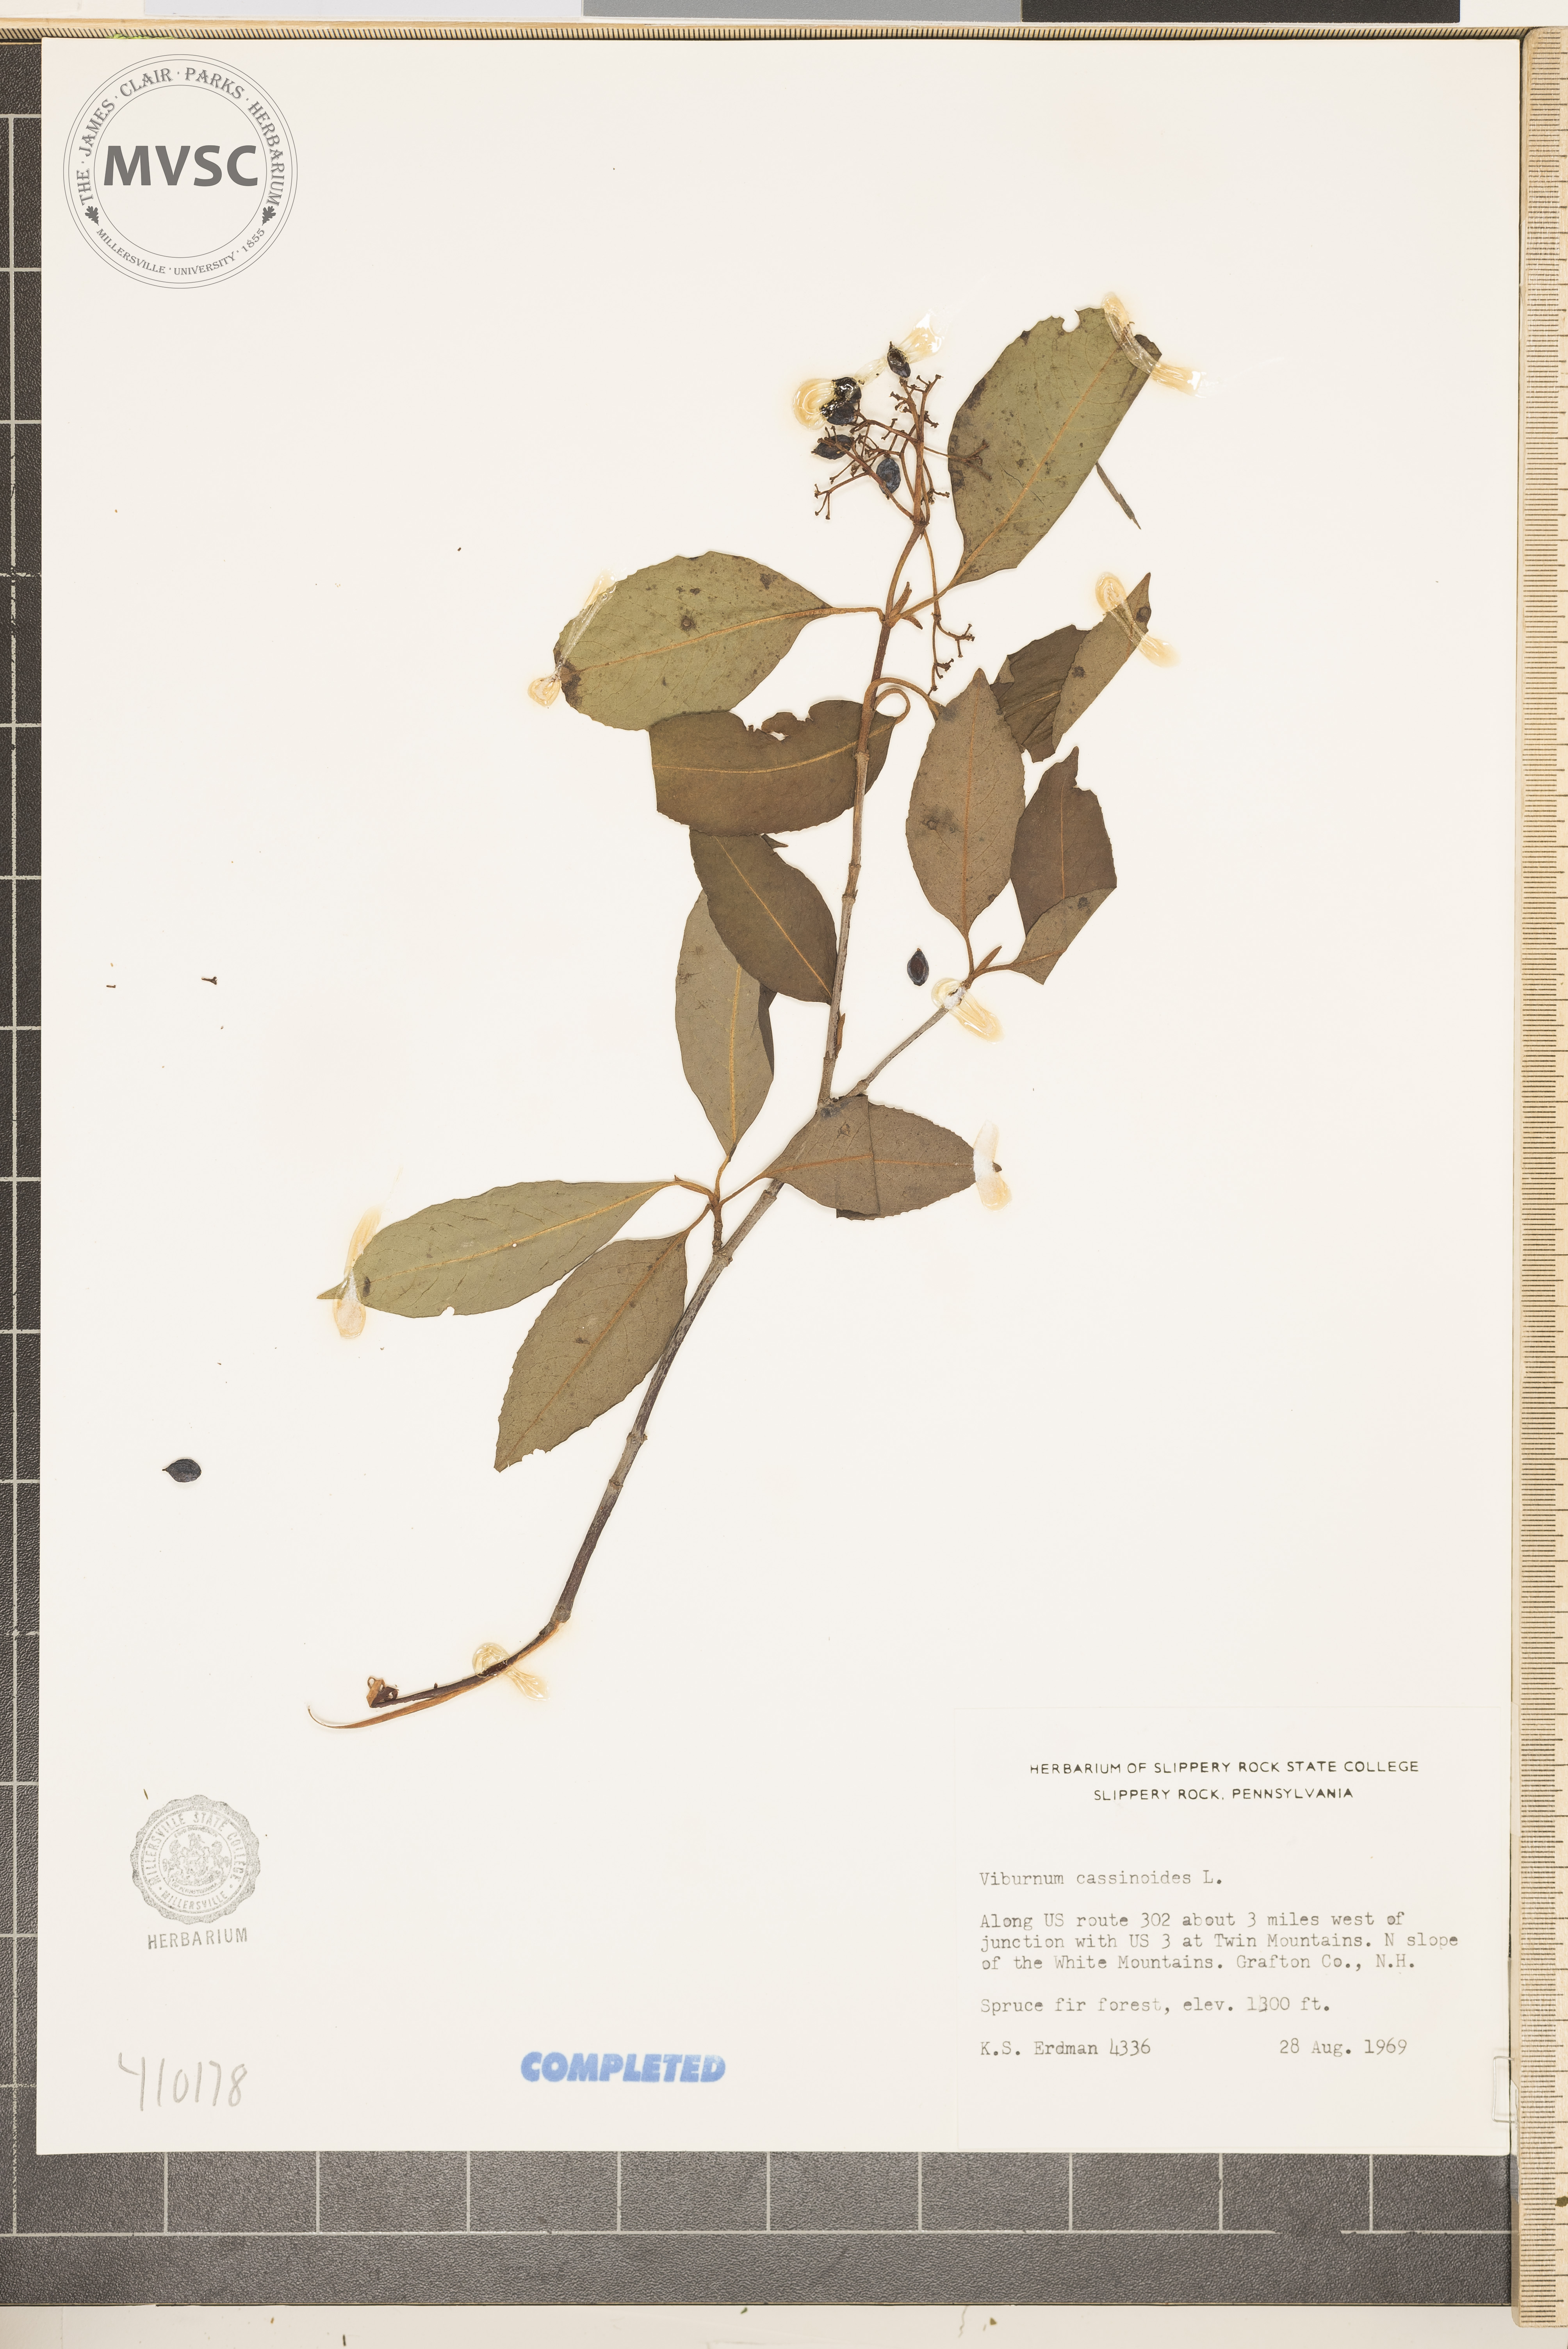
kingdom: Plantae
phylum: Tracheophyta
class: Magnoliopsida
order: Dipsacales
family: Viburnaceae
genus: Viburnum
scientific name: Viburnum cassinoides
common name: Swamp haw
